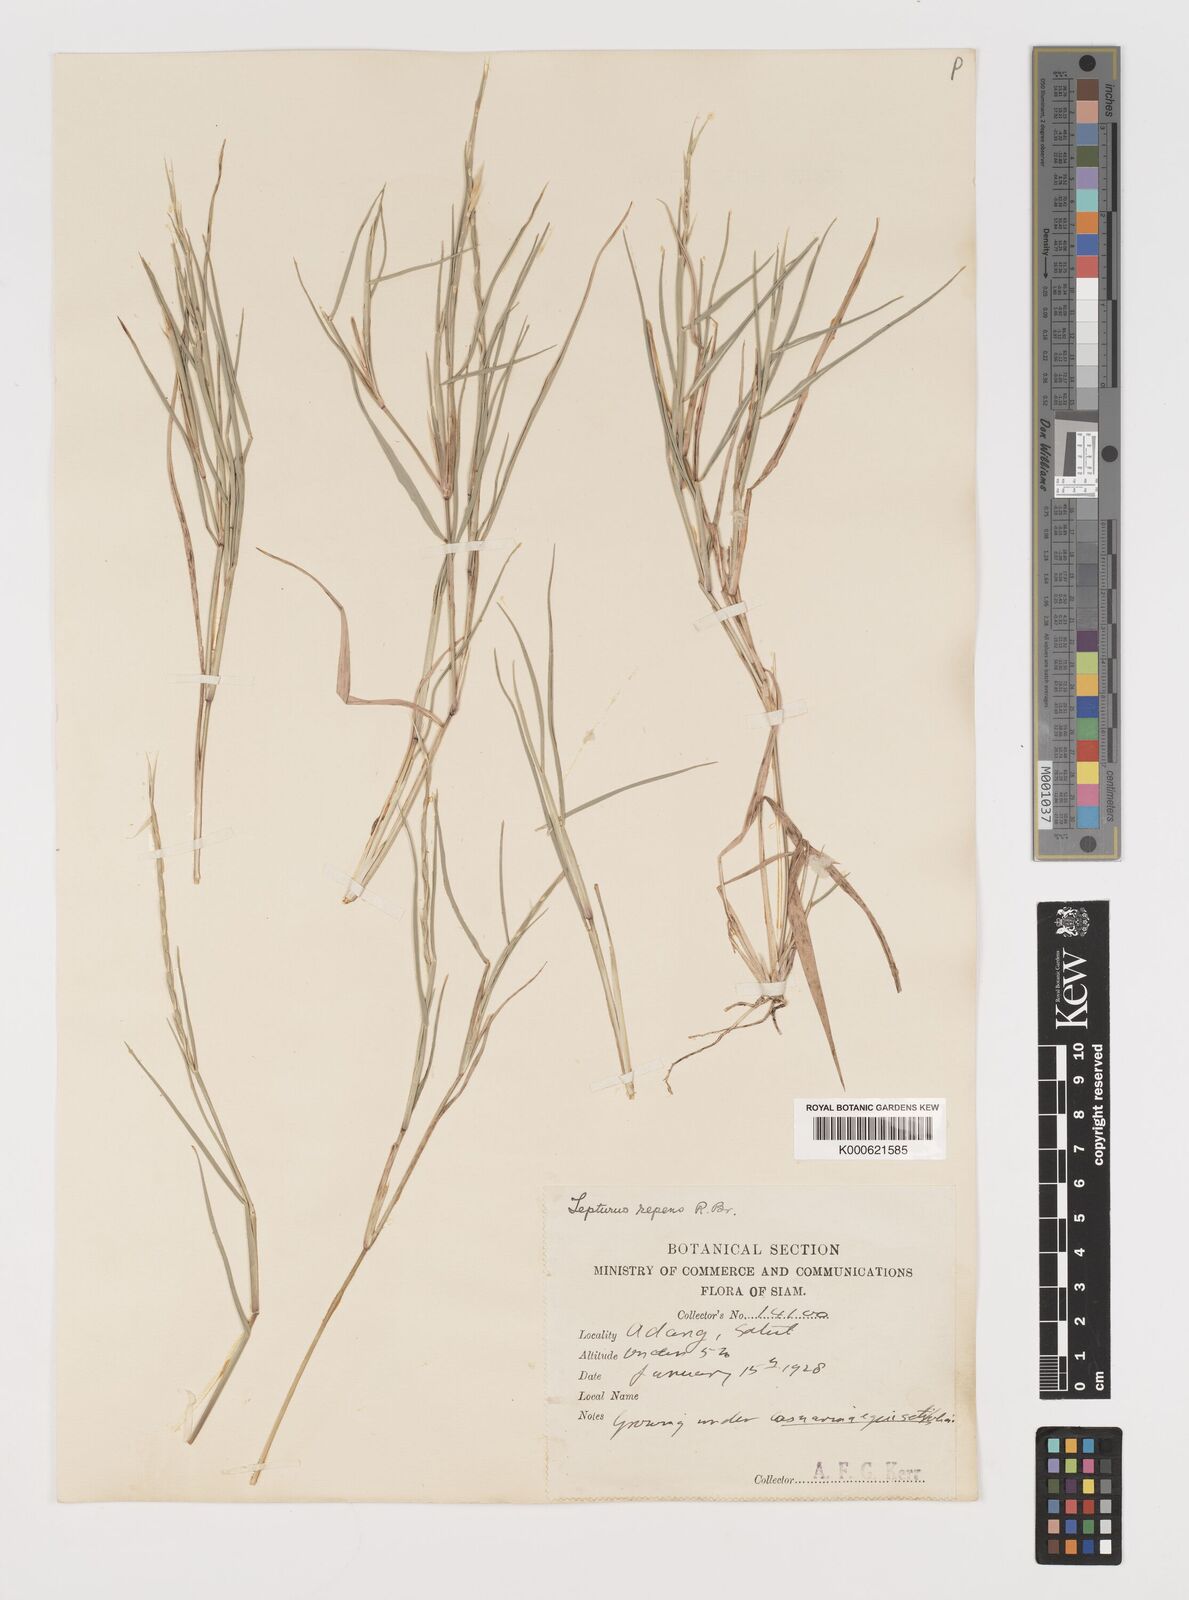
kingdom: Plantae
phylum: Tracheophyta
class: Liliopsida
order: Poales
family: Poaceae
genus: Lepturus
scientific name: Lepturus repens
